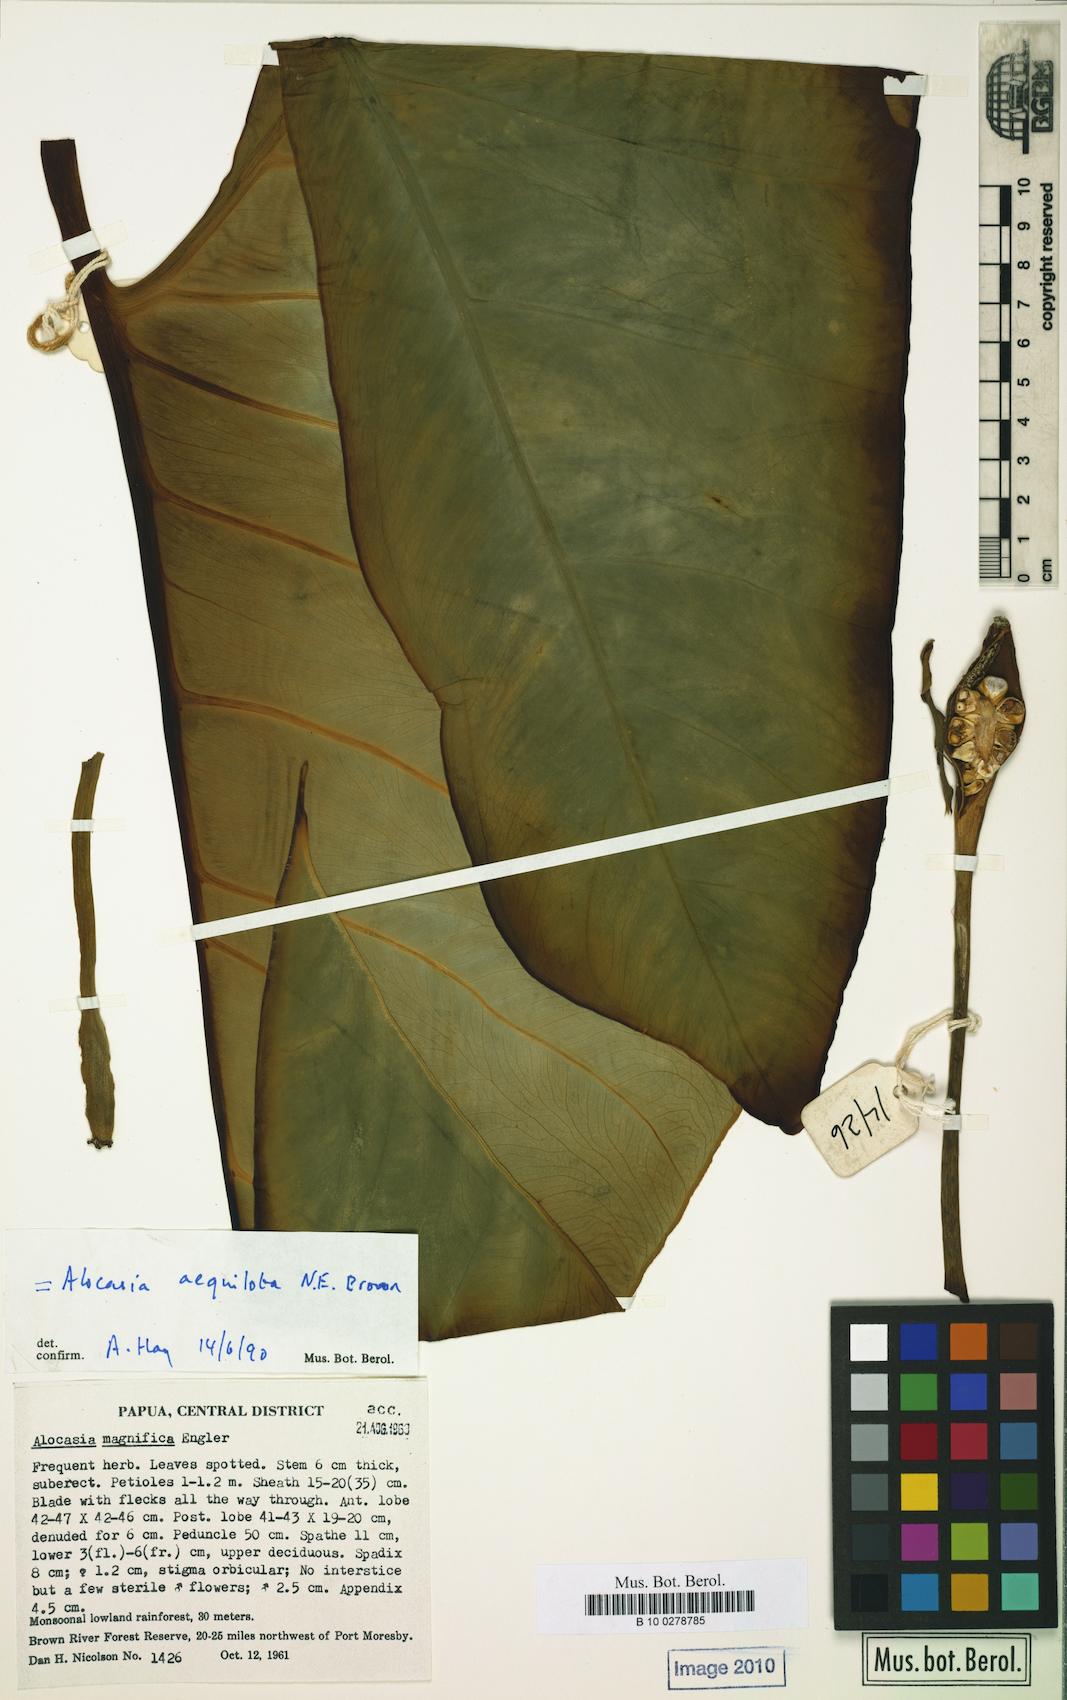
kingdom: Plantae
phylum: Tracheophyta
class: Liliopsida
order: Alismatales
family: Araceae
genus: Alocasia
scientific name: Alocasia aequiloba
